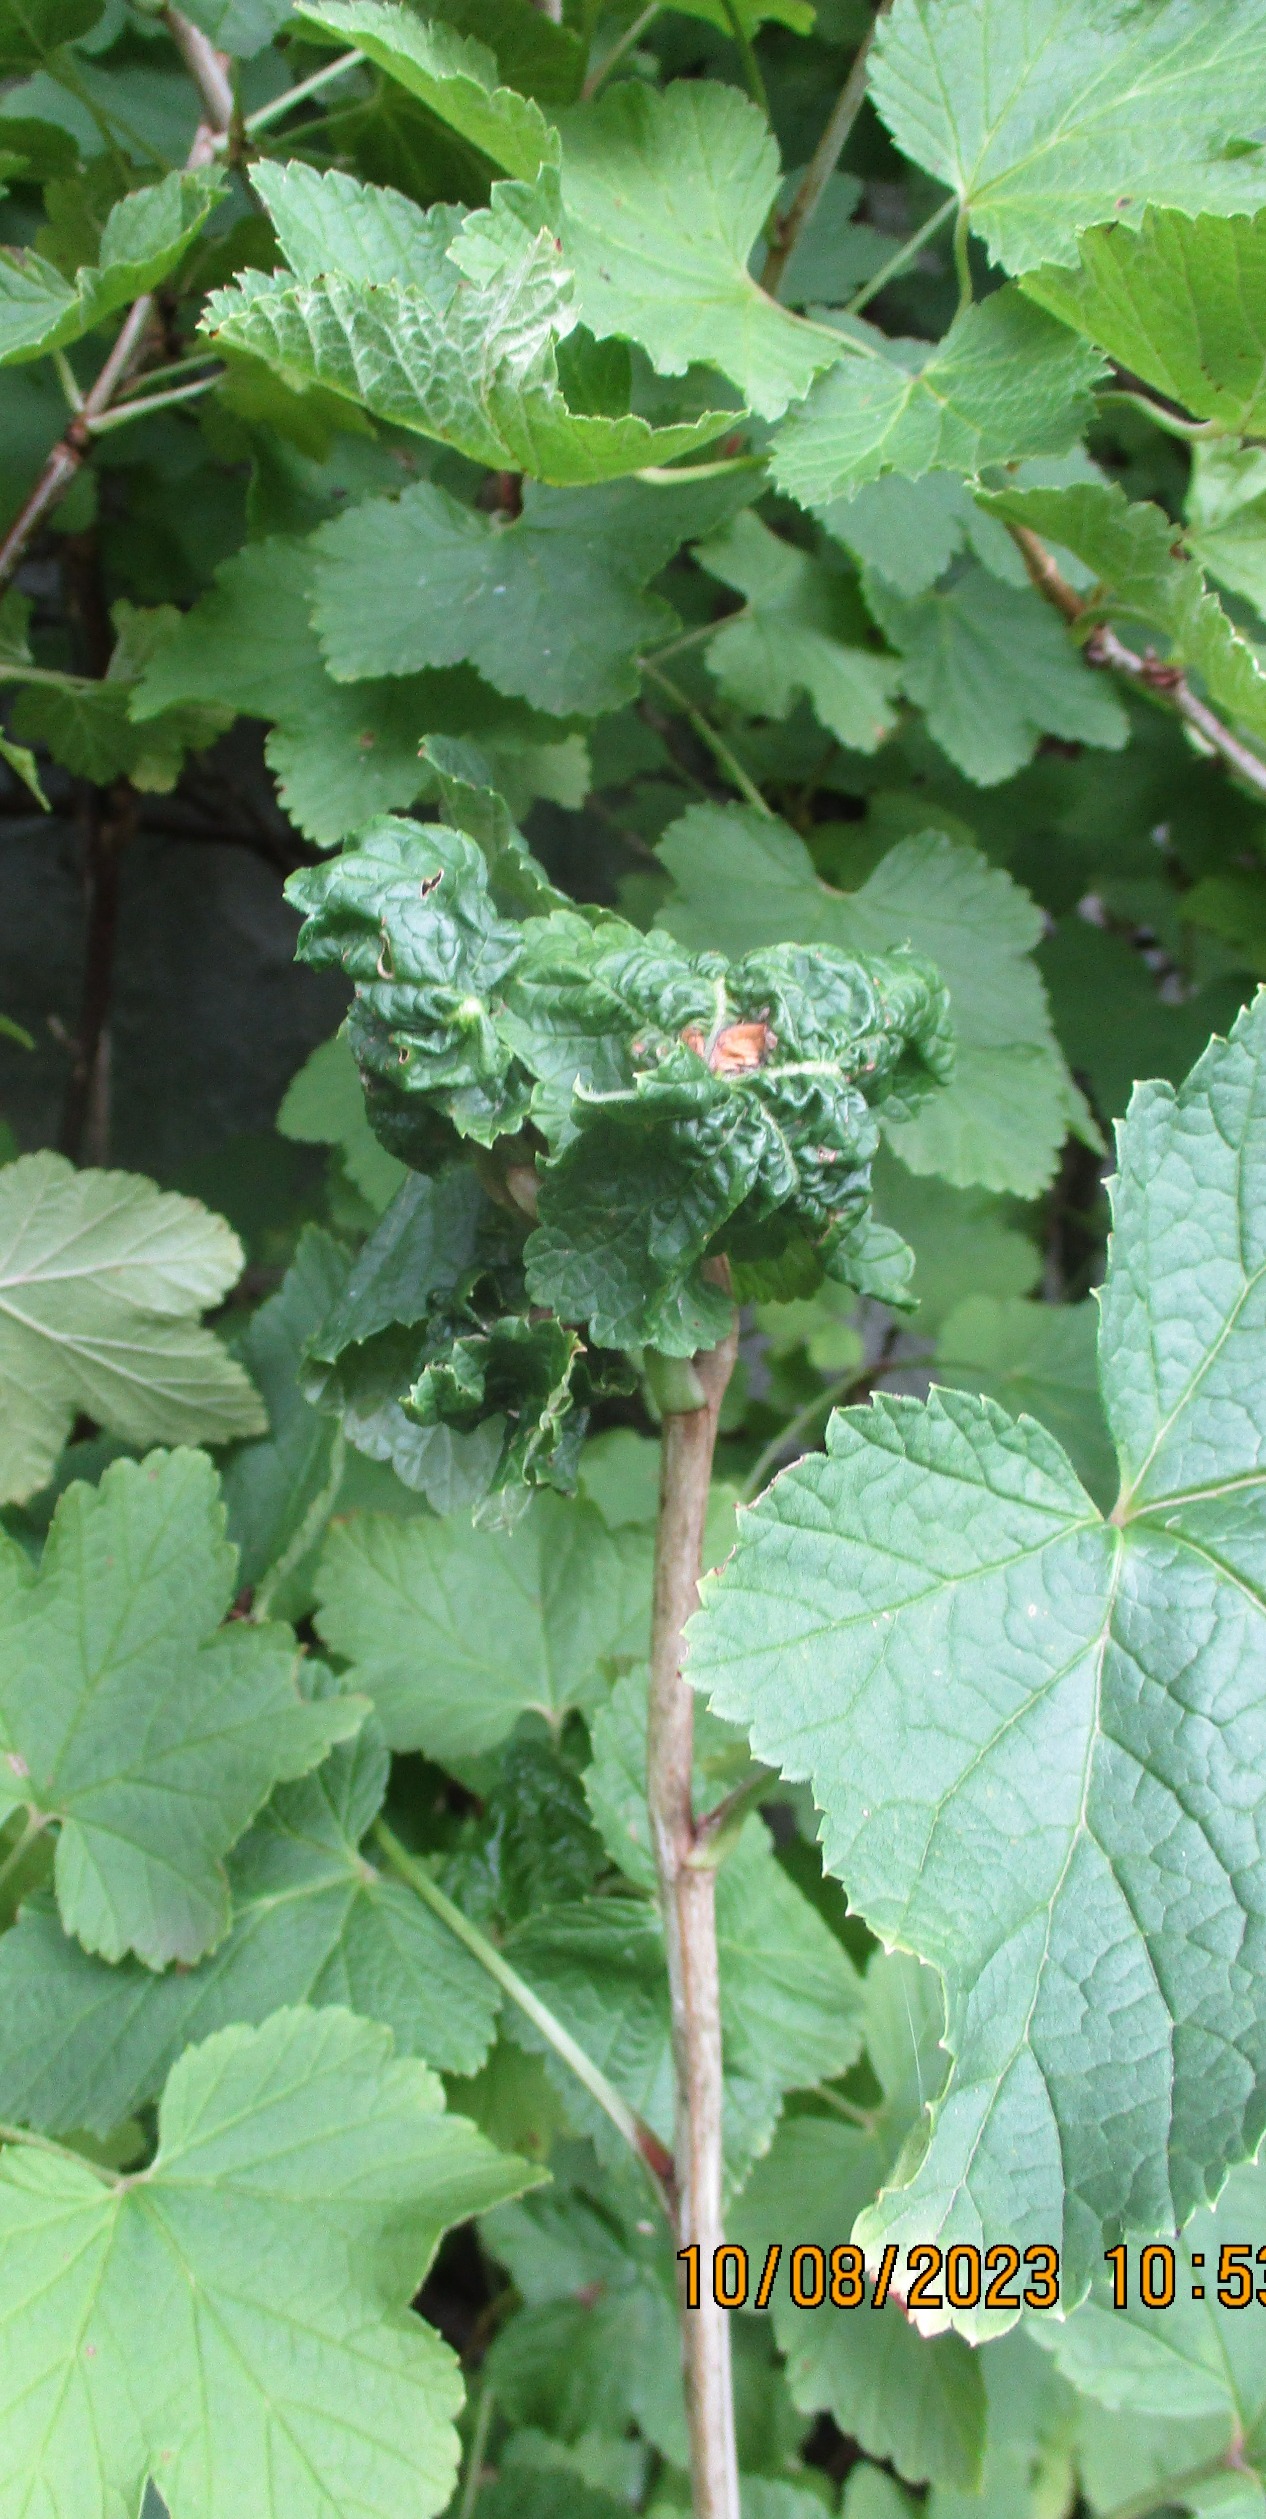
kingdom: Animalia
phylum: Arthropoda
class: Insecta
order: Hemiptera
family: Aphididae
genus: Cryptomyzus
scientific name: Cryptomyzus ribis
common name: Ribsbladlus
